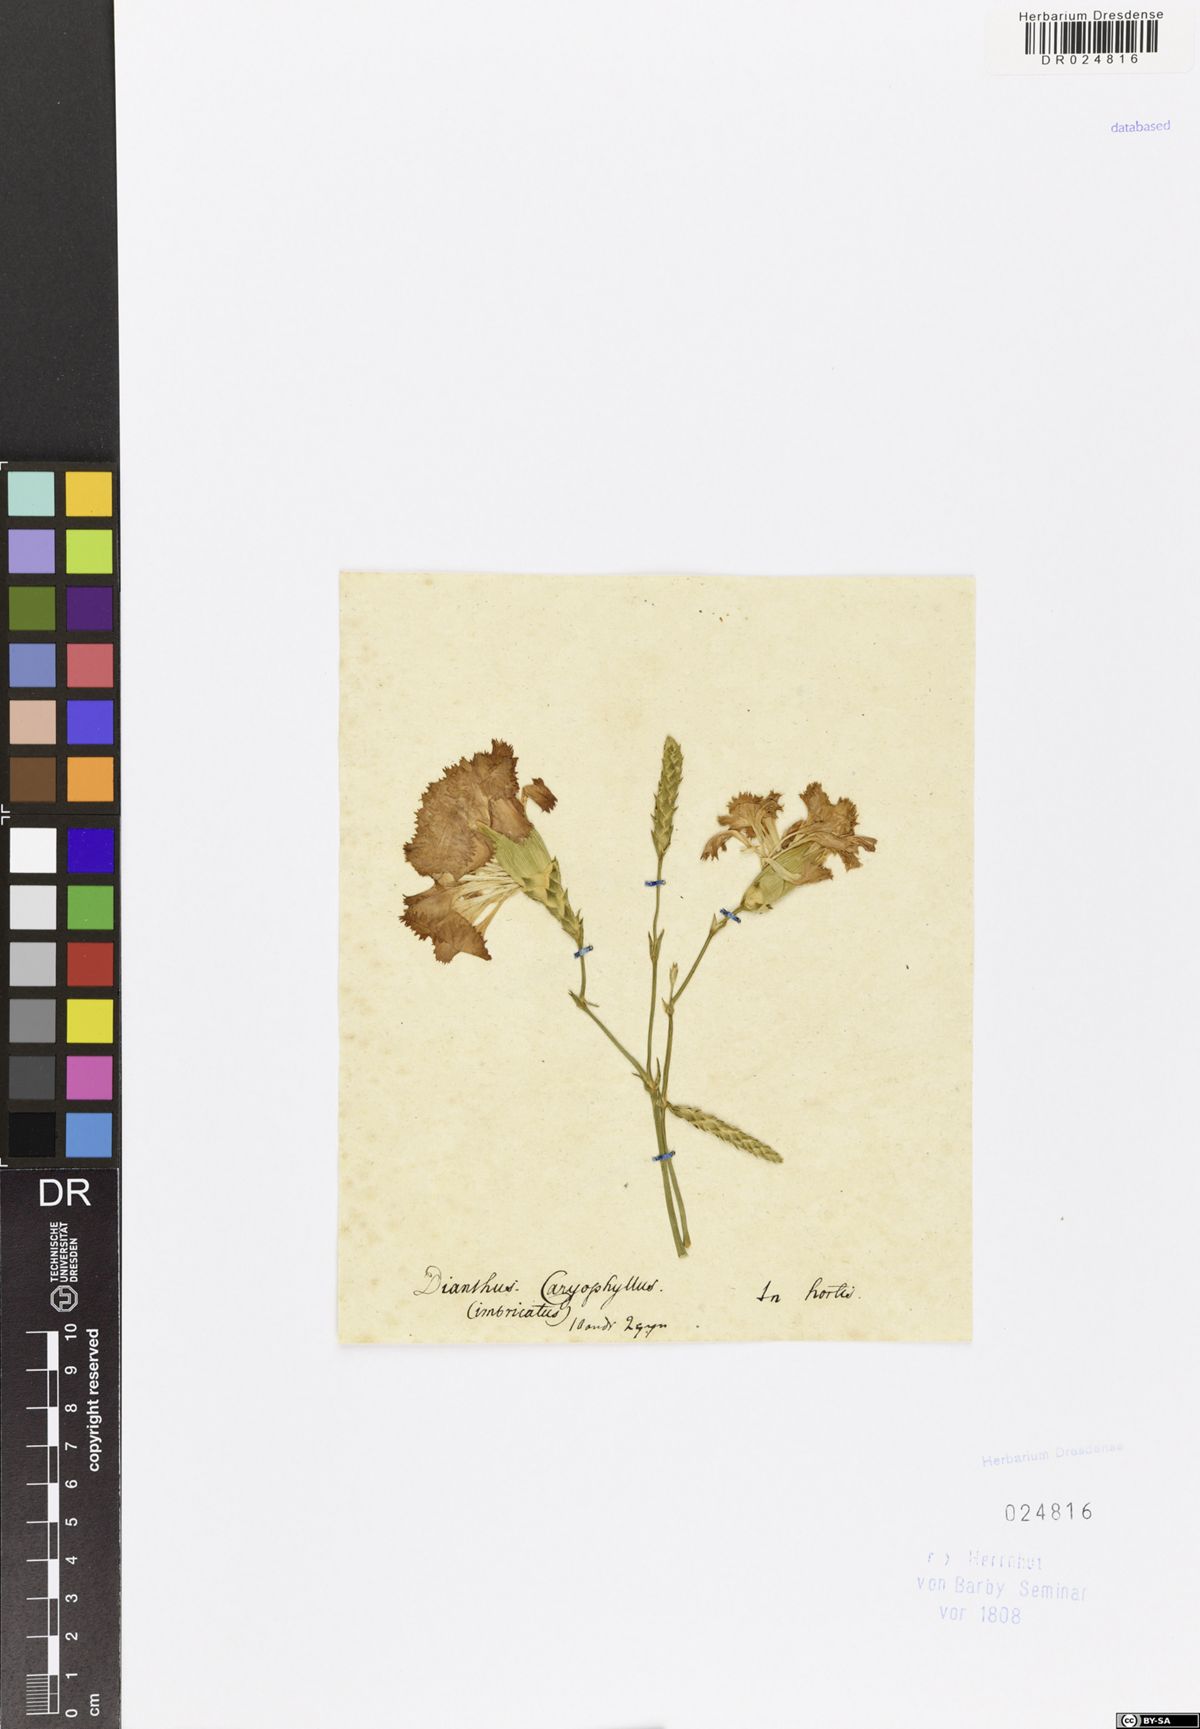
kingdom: Plantae
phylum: Tracheophyta
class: Magnoliopsida
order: Caryophyllales
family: Caryophyllaceae
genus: Dianthus
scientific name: Dianthus caryophyllus
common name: Clove pink
